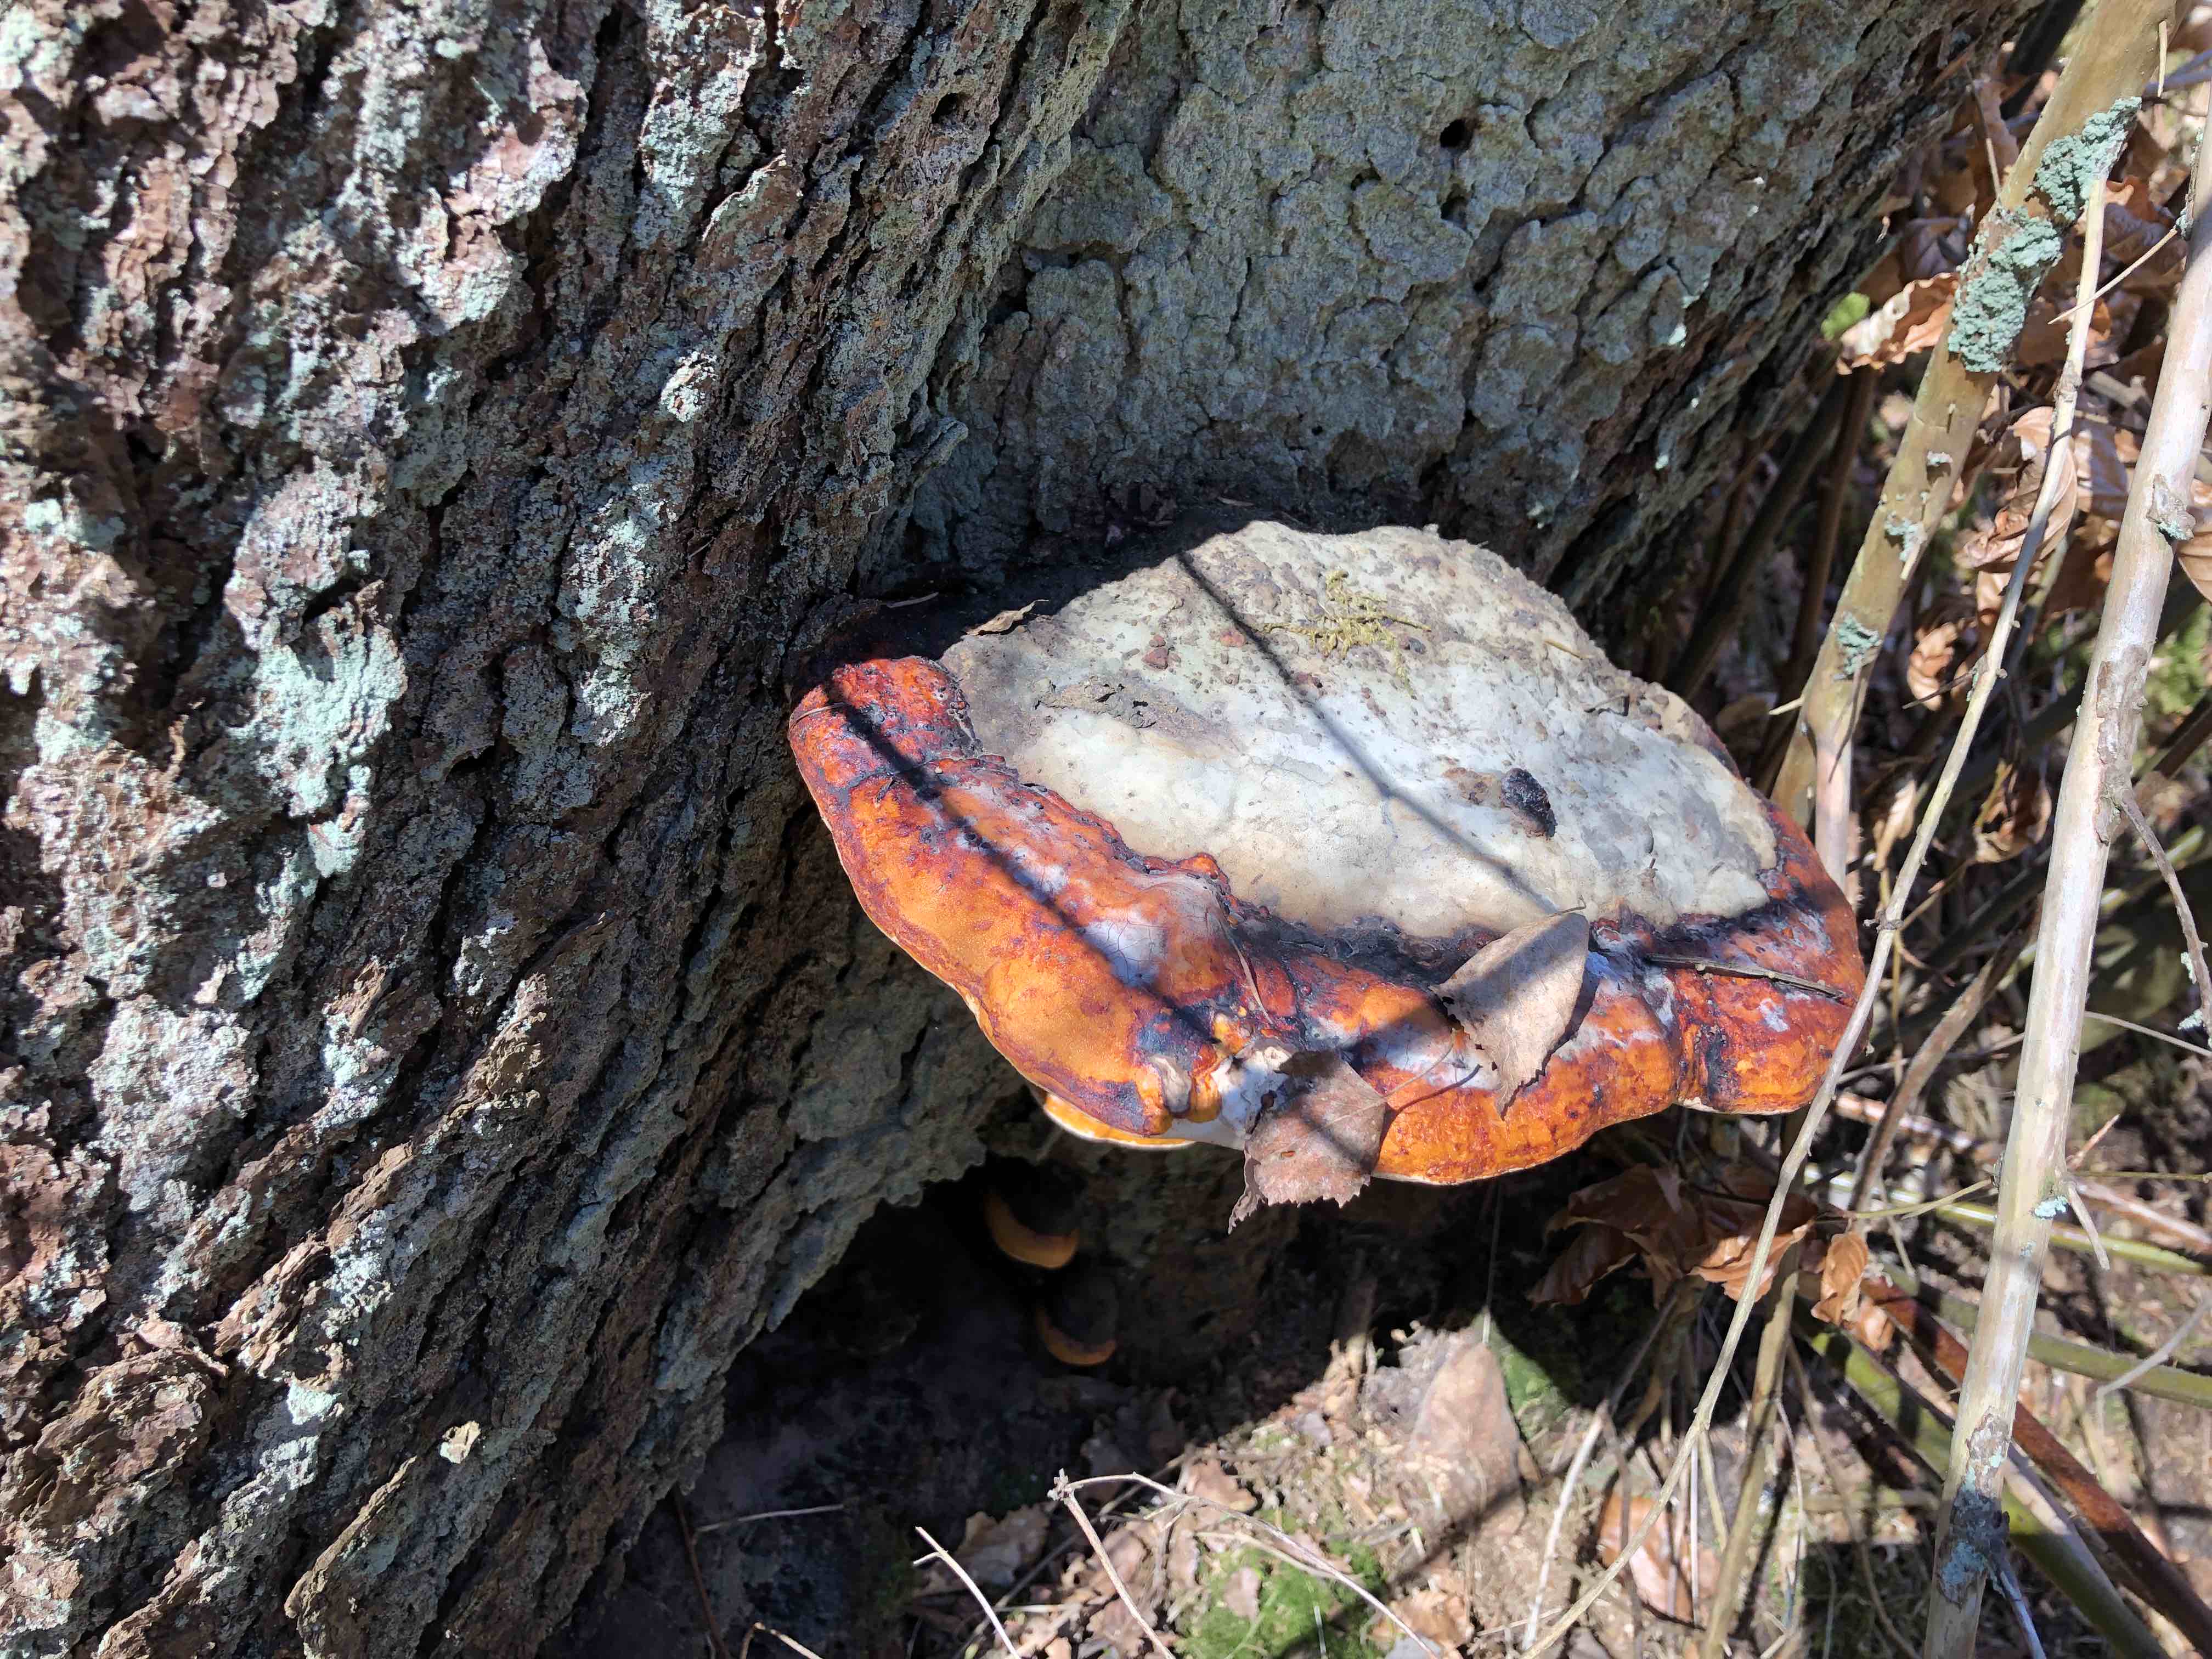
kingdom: Fungi
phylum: Basidiomycota
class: Agaricomycetes
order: Polyporales
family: Fomitopsidaceae
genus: Fomitopsis
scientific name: Fomitopsis pinicola
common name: randbæltet hovporesvamp
